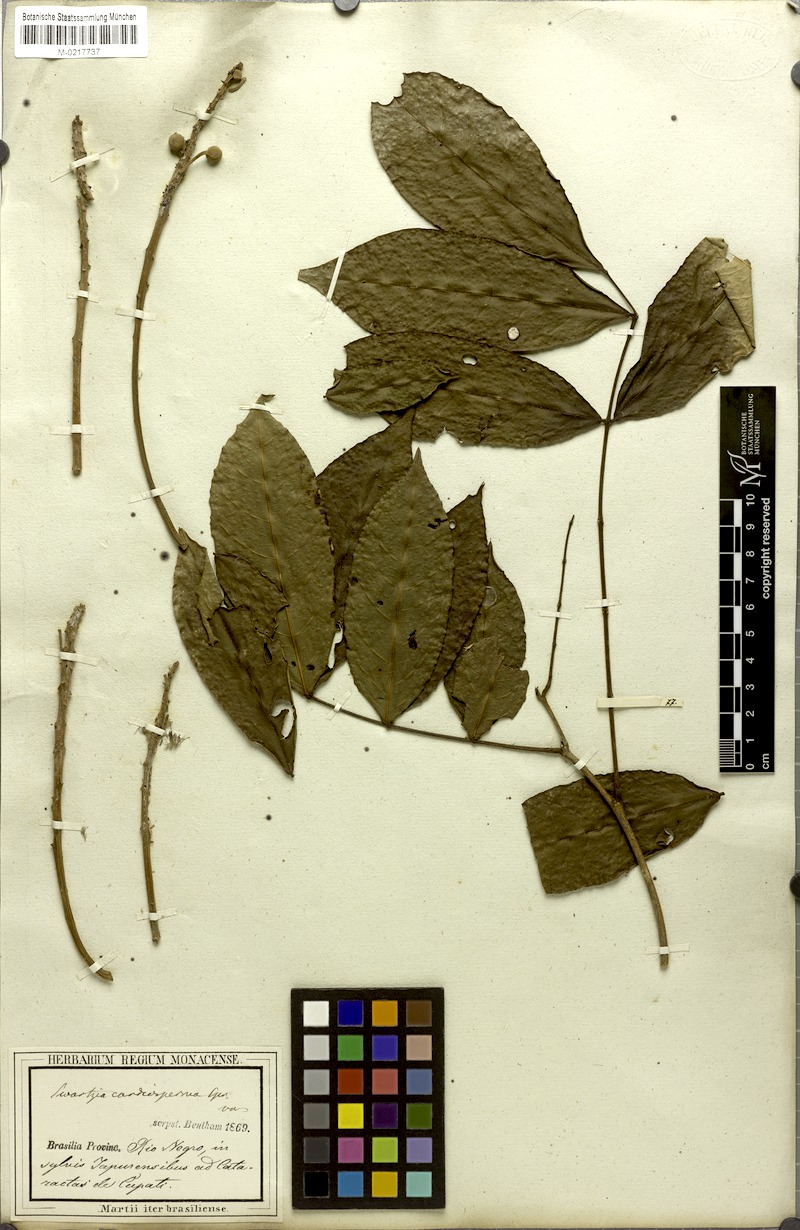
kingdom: Plantae
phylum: Tracheophyta
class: Magnoliopsida
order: Fabales
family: Fabaceae
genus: Swartzia
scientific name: Swartzia cardiosperma
